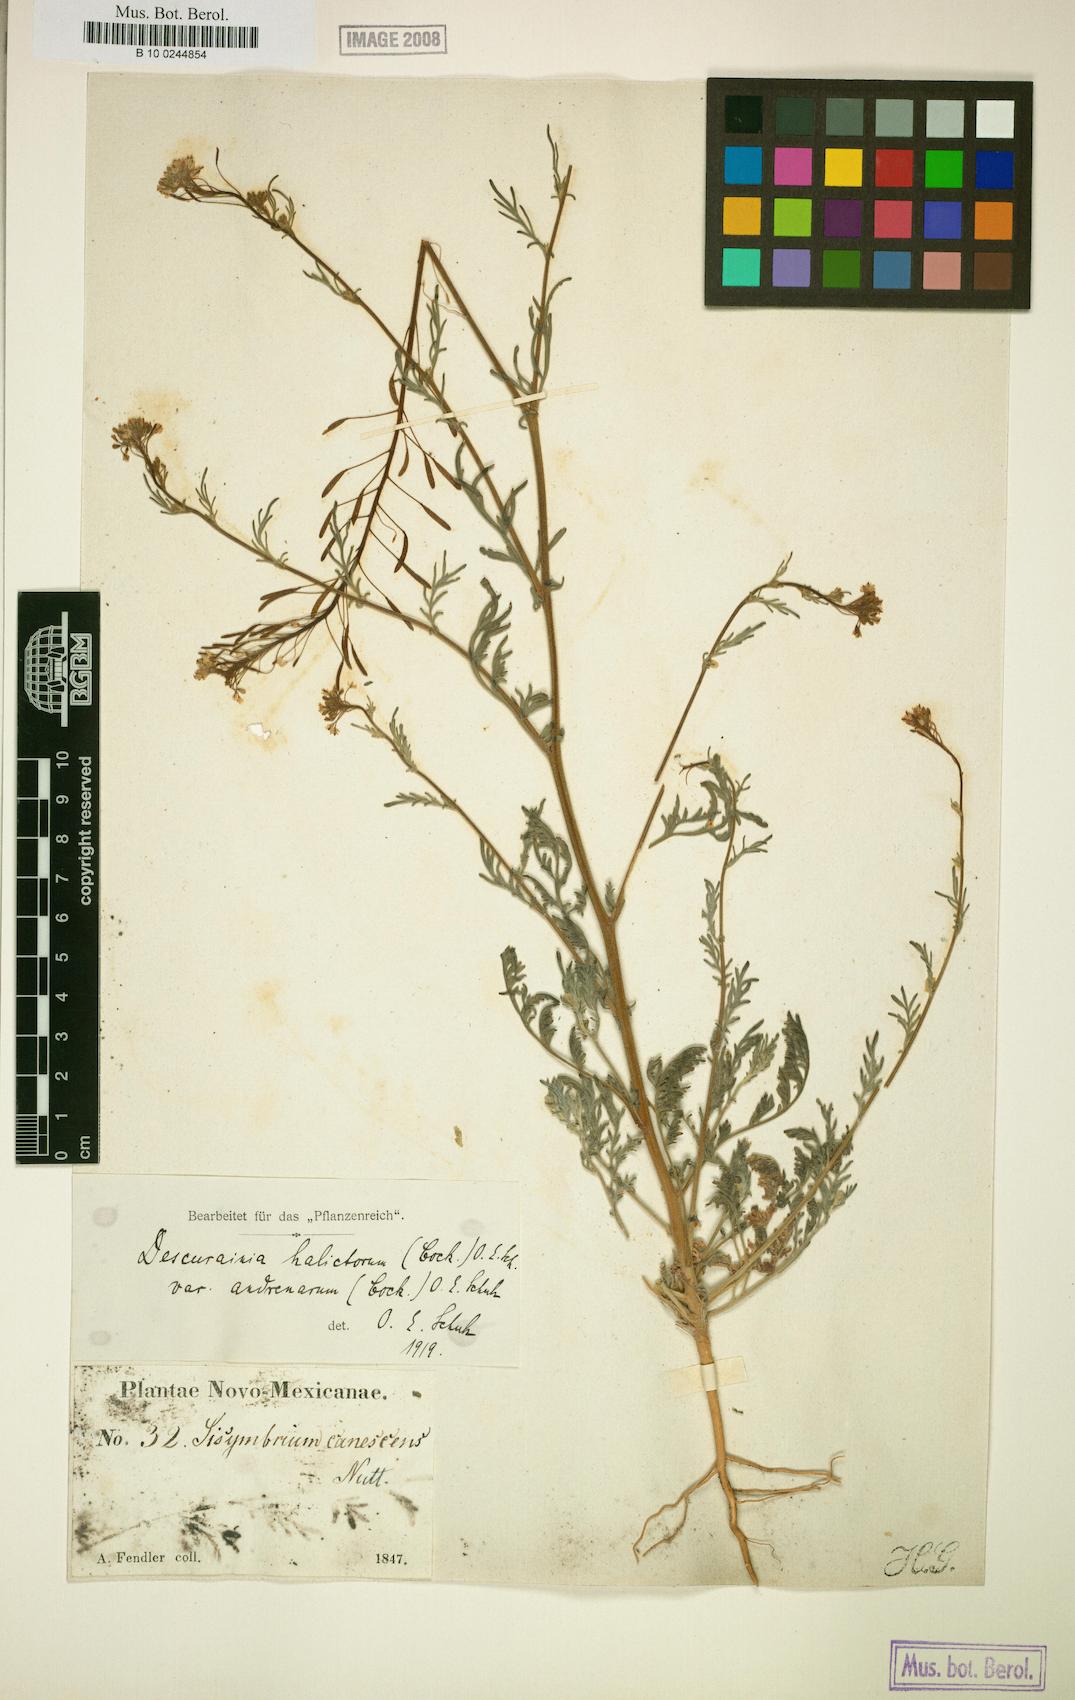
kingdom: Plantae
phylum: Tracheophyta
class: Magnoliopsida
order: Brassicales
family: Brassicaceae
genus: Descurainia
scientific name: Descurainia pinnata
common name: Western tansy mustard
